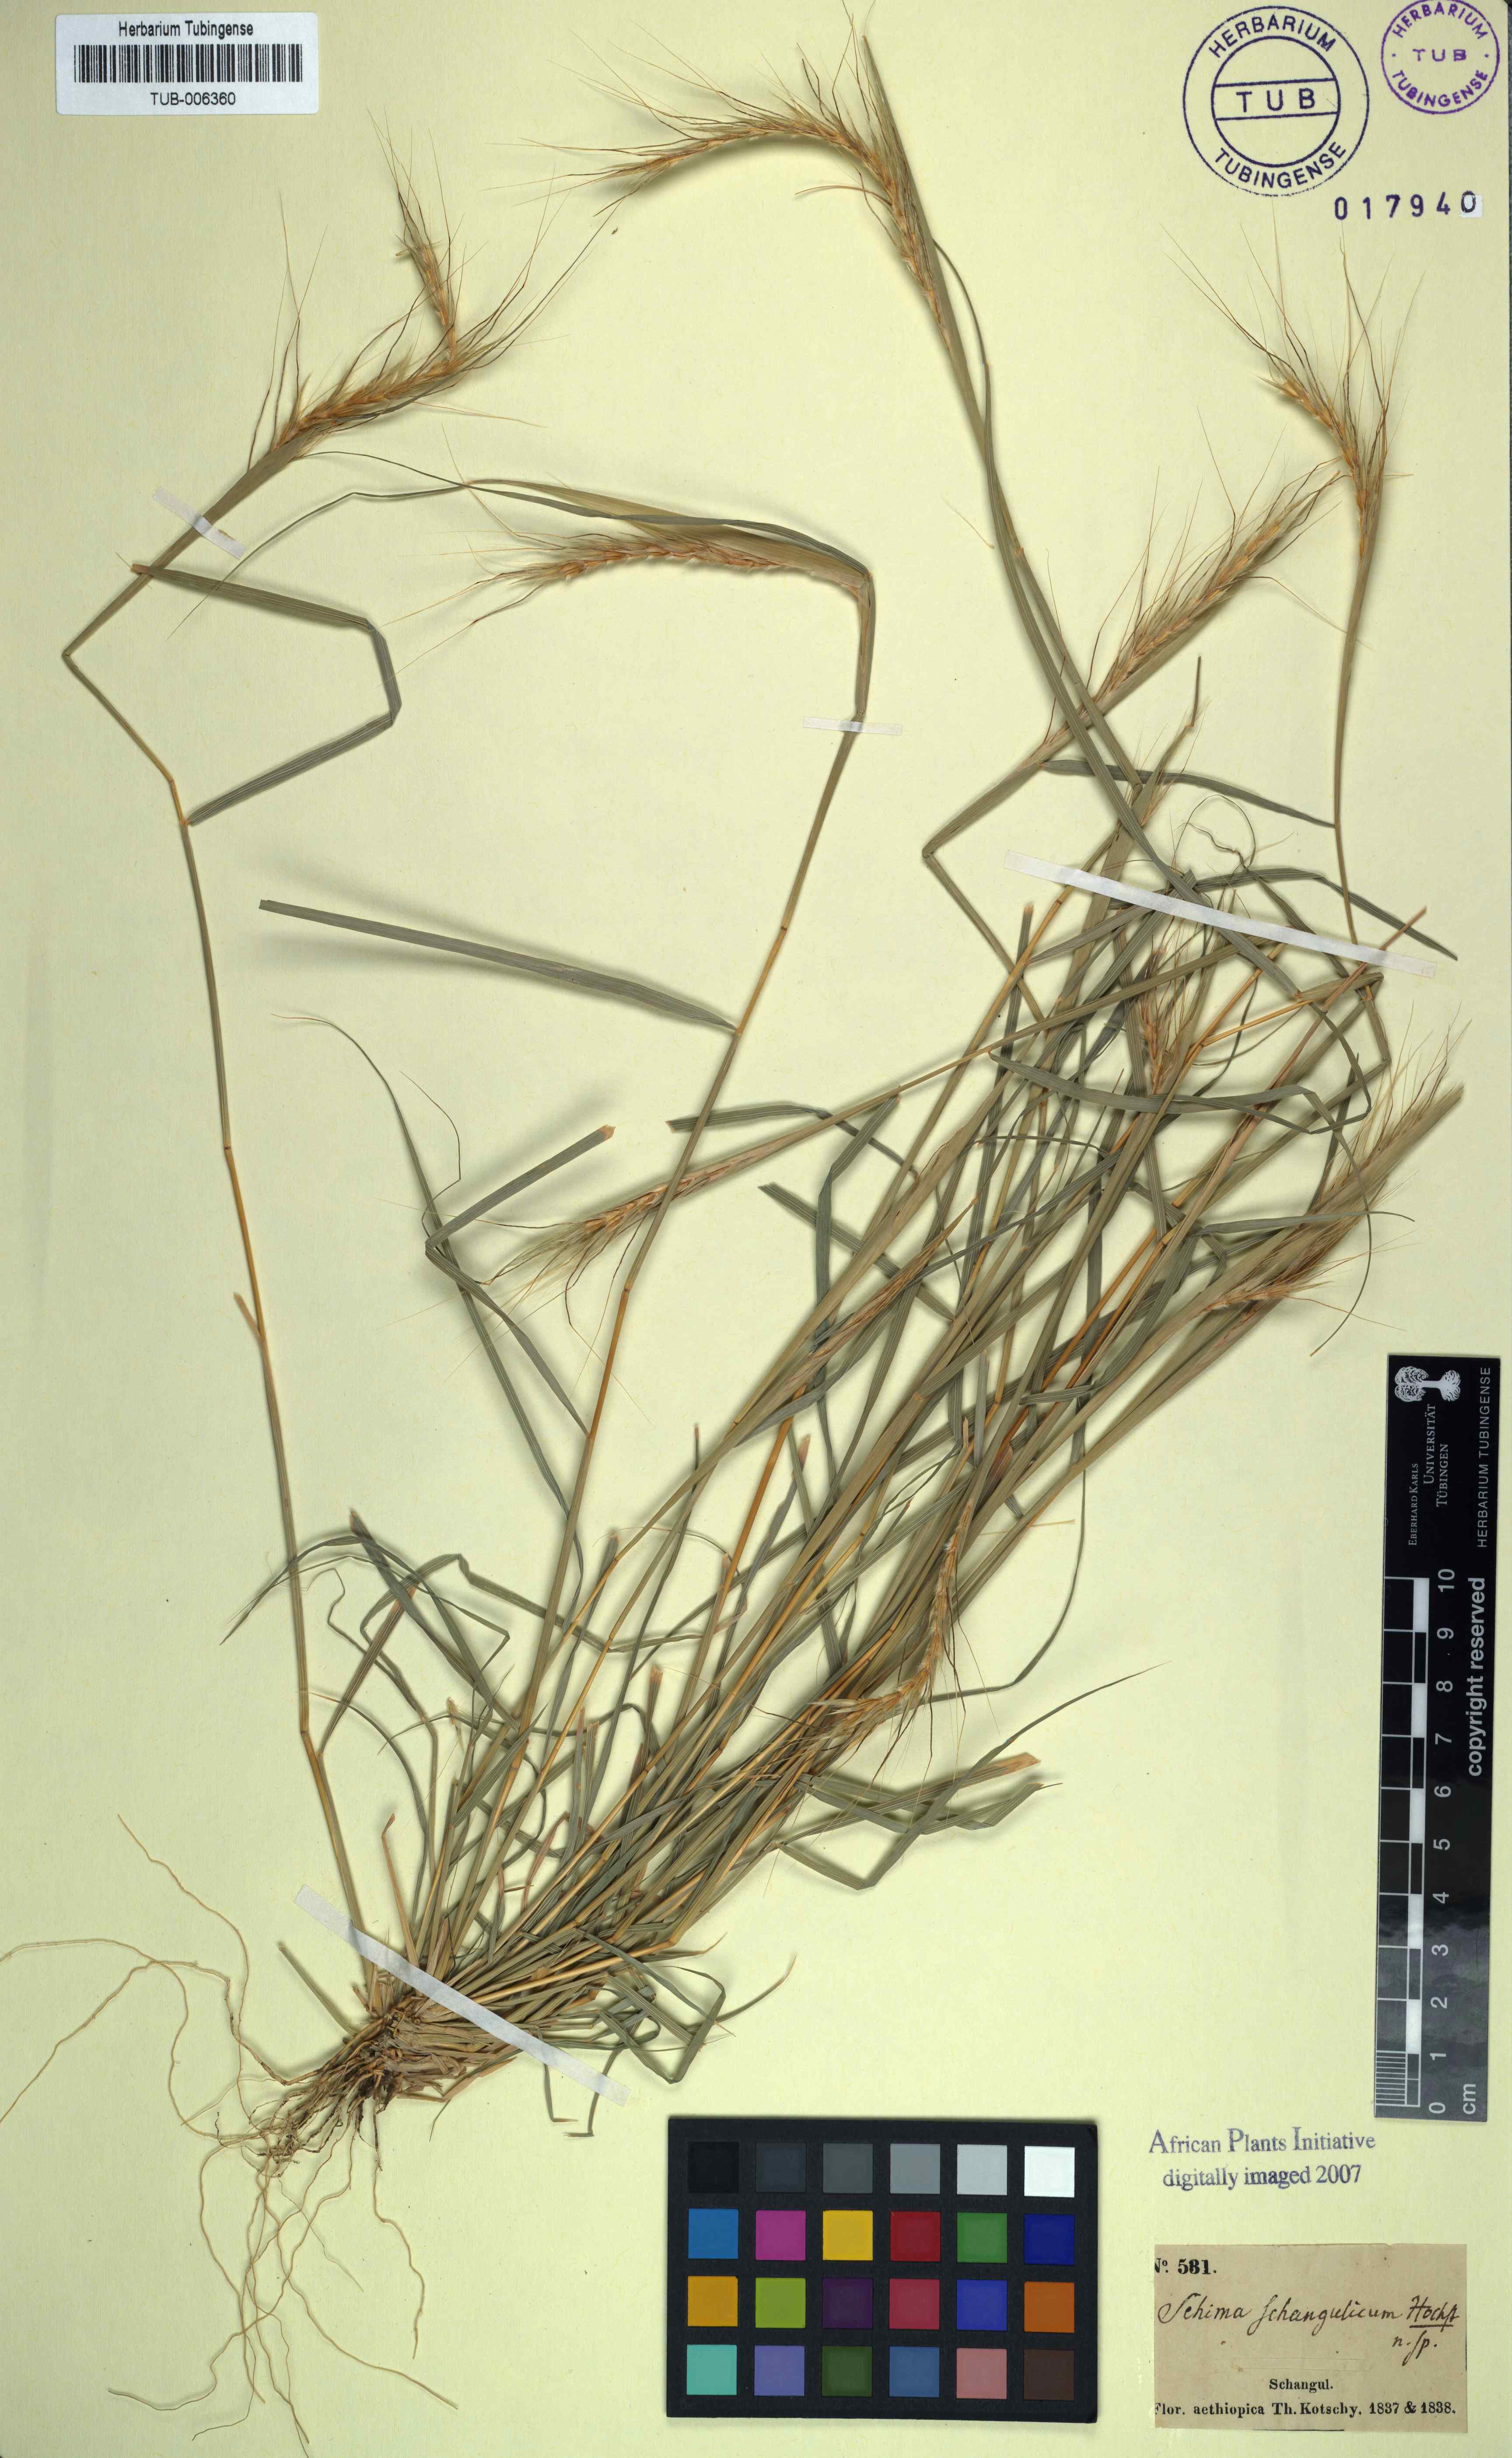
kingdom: Plantae
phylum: Tracheophyta
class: Liliopsida
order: Poales
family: Poaceae
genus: Sehima
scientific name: Sehima nervosa
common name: Rat-tail grass
